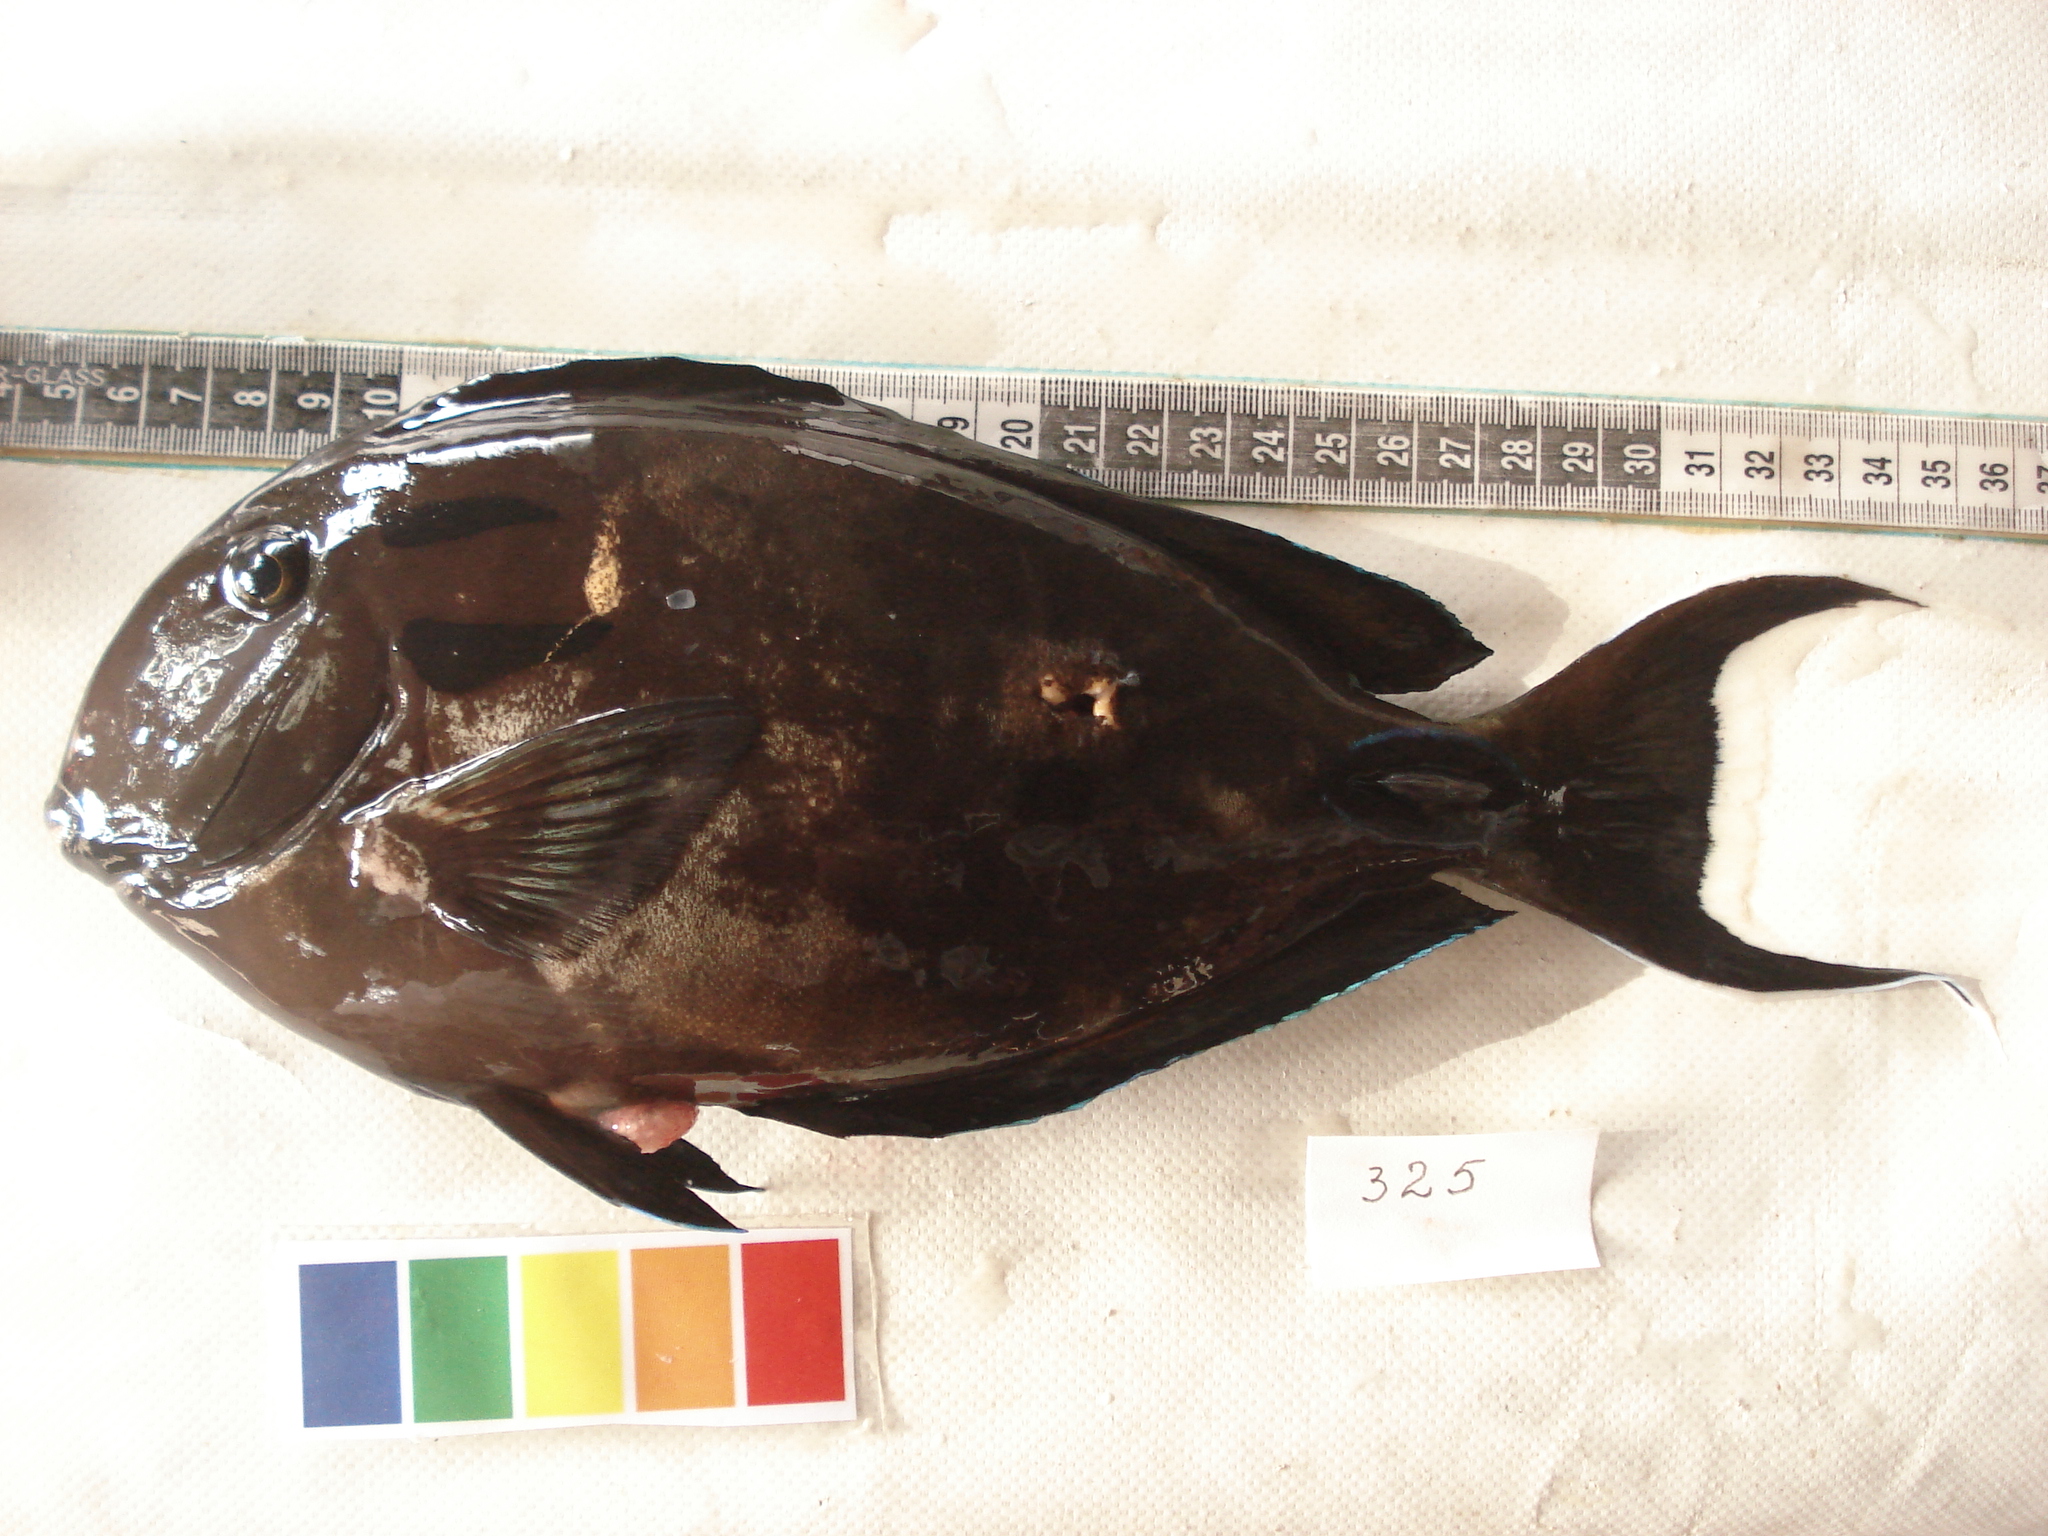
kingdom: Animalia
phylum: Chordata
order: Perciformes
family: Acanthuridae
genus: Acanthurus
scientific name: Acanthurus tennentii
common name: Doubleband surgeonfish
